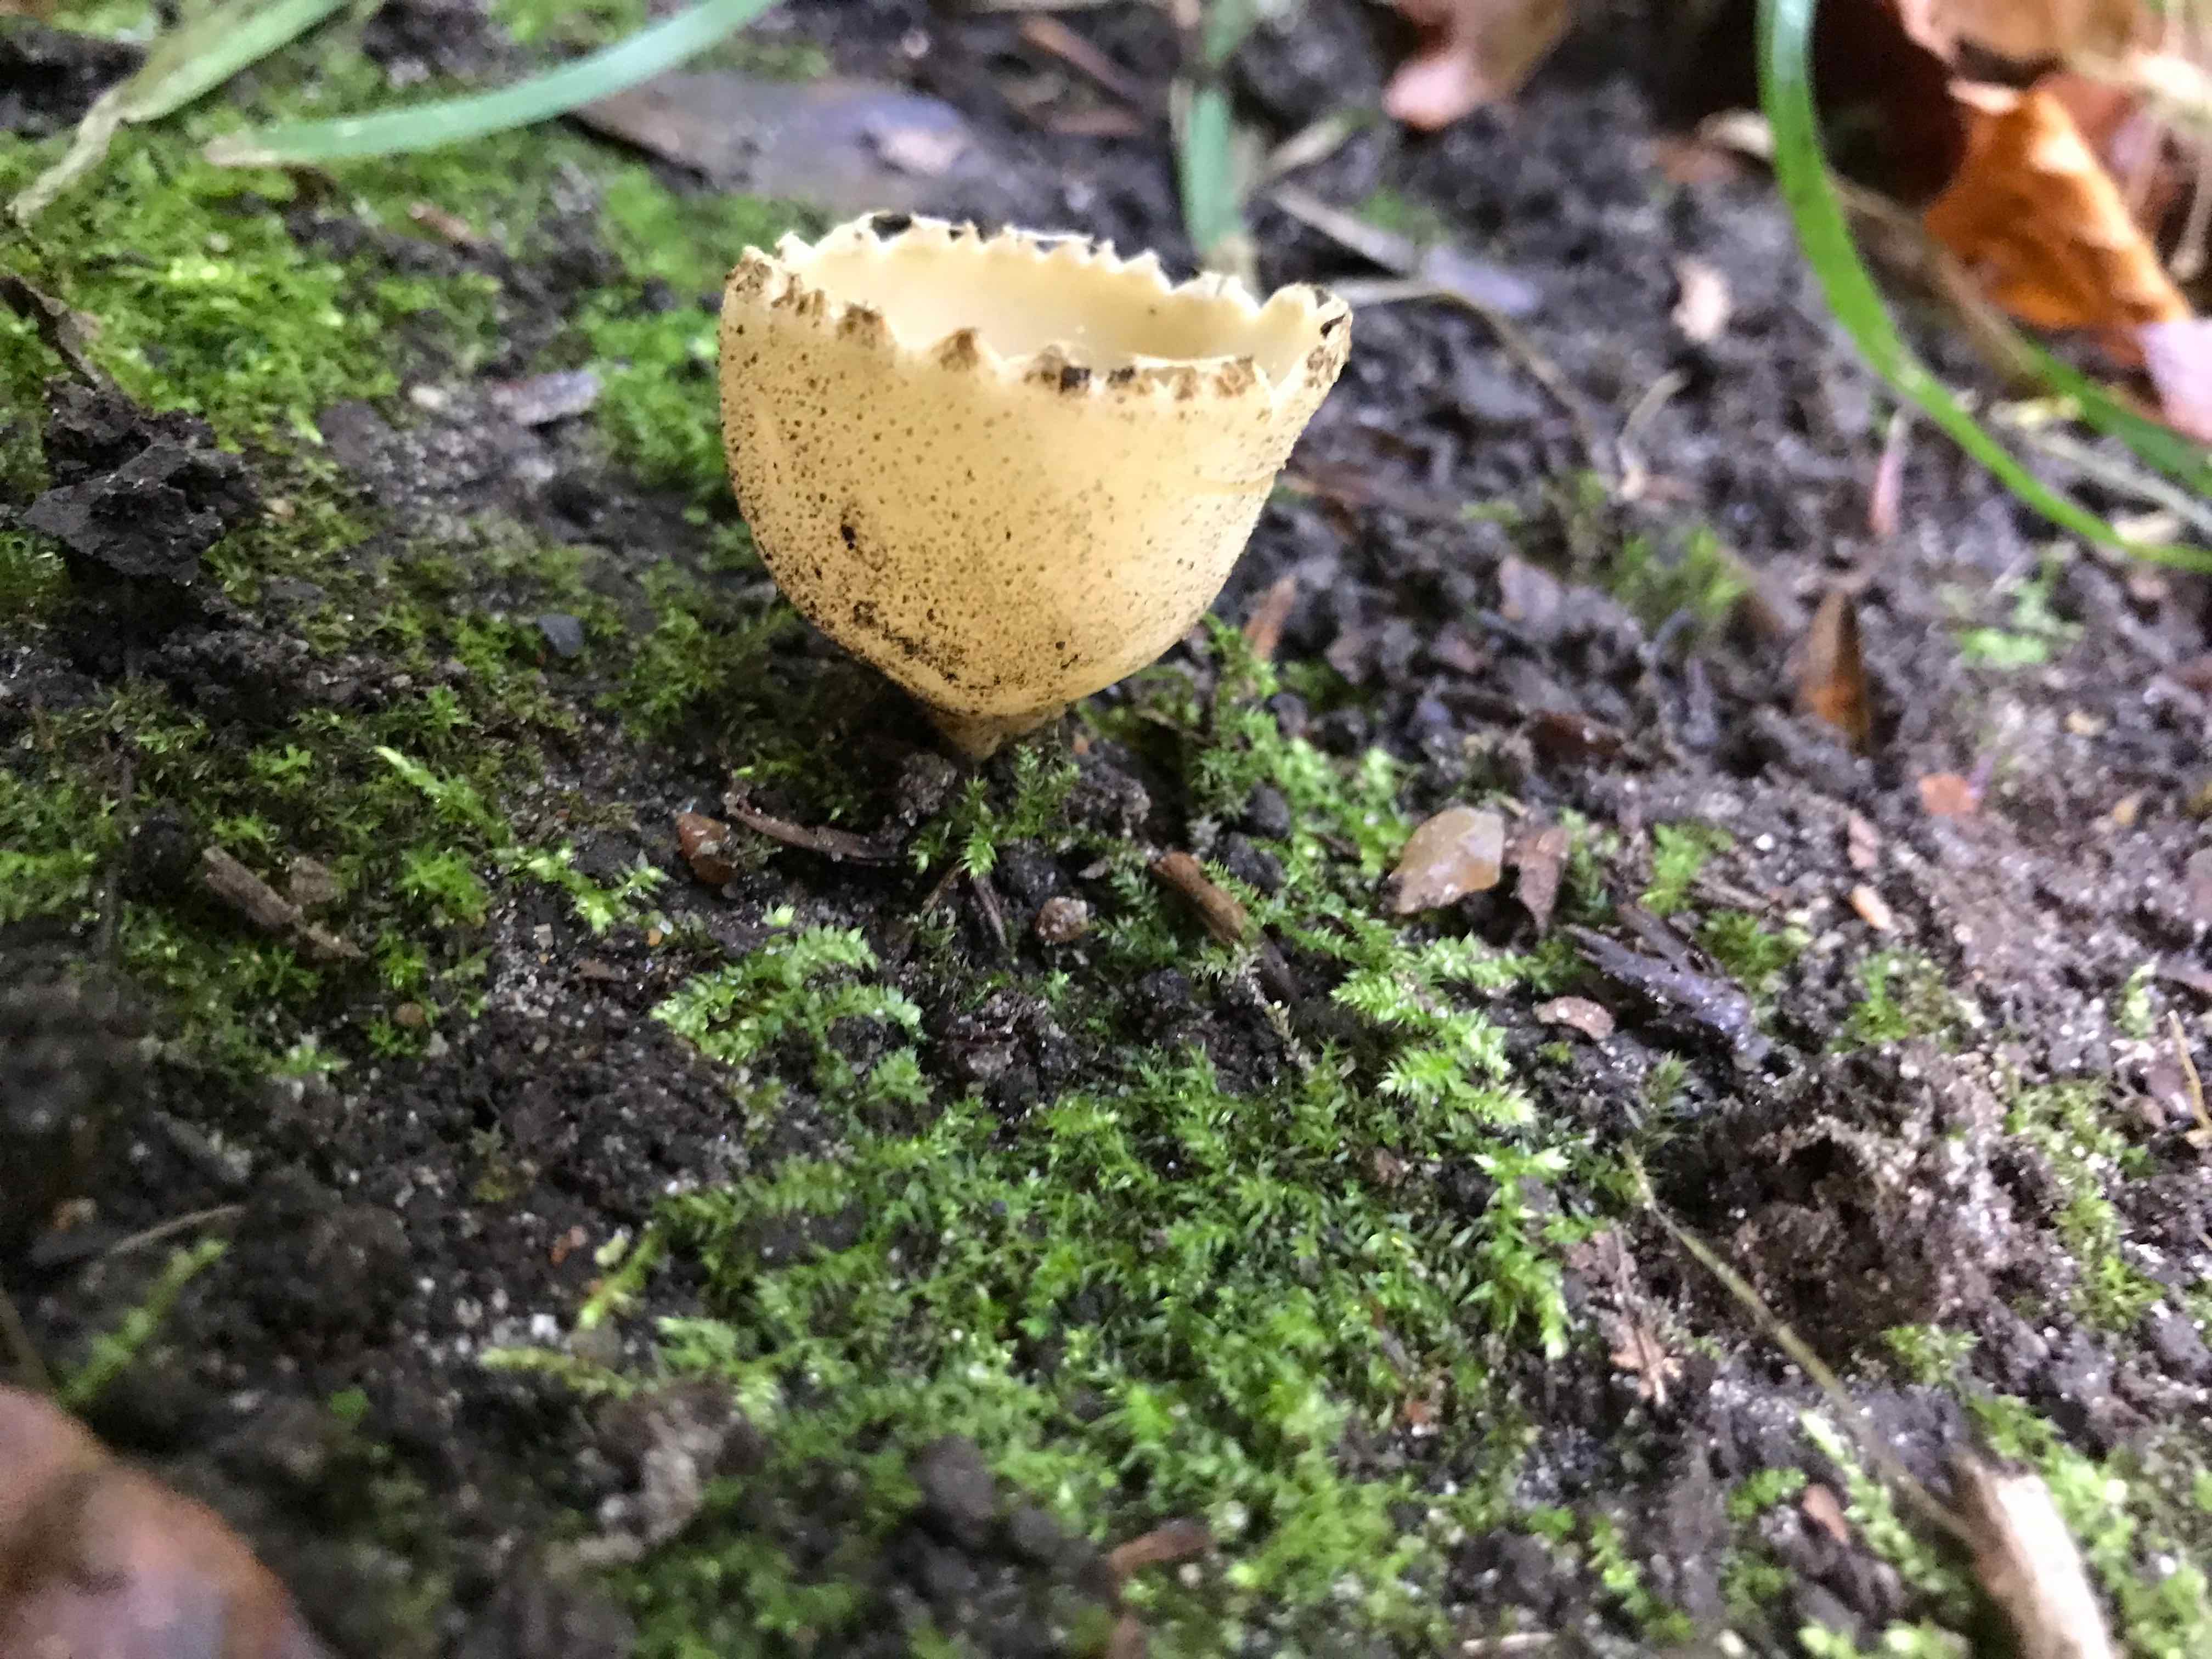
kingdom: Fungi
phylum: Ascomycota
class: Pezizomycetes
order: Pezizales
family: Pyronemataceae
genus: Tarzetta
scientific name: Tarzetta cupularis
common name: gulbrun pokalbæger
